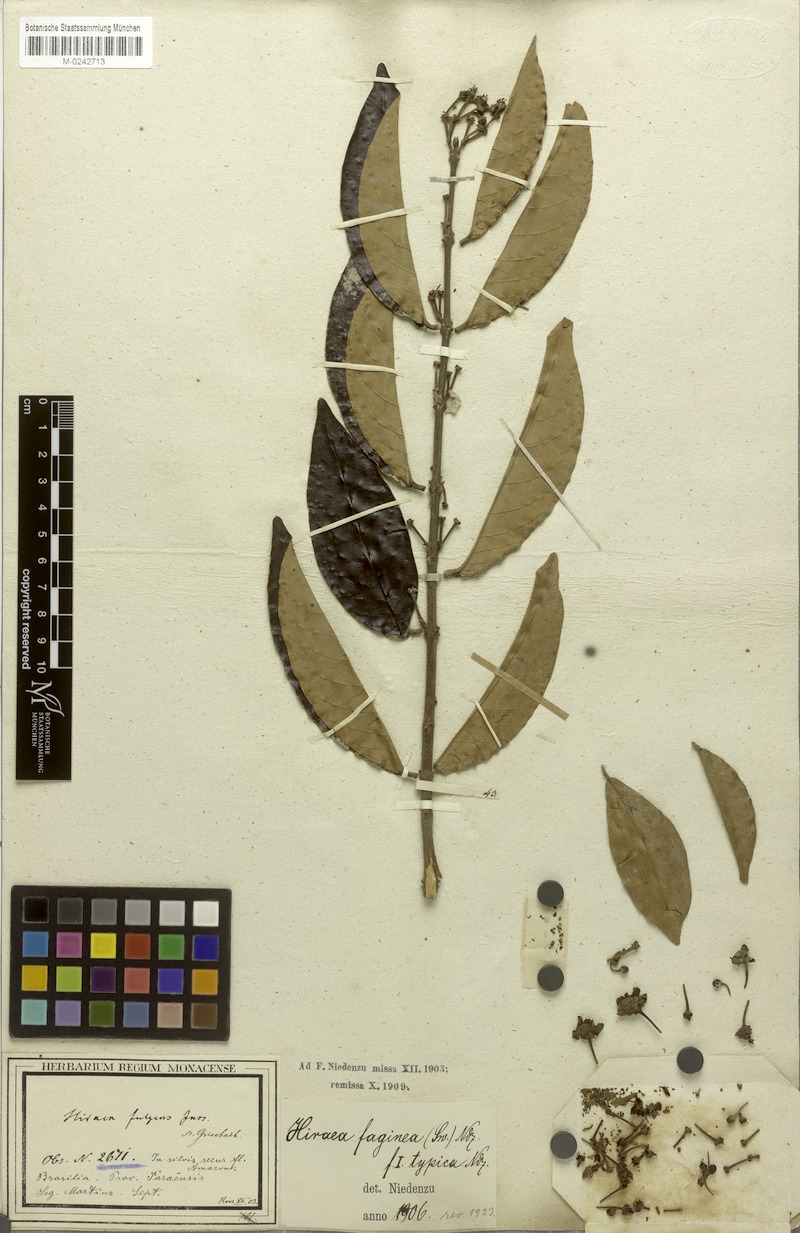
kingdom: Plantae
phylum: Tracheophyta
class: Magnoliopsida
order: Malpighiales
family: Malpighiaceae
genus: Hiraea
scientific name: Hiraea faginea
